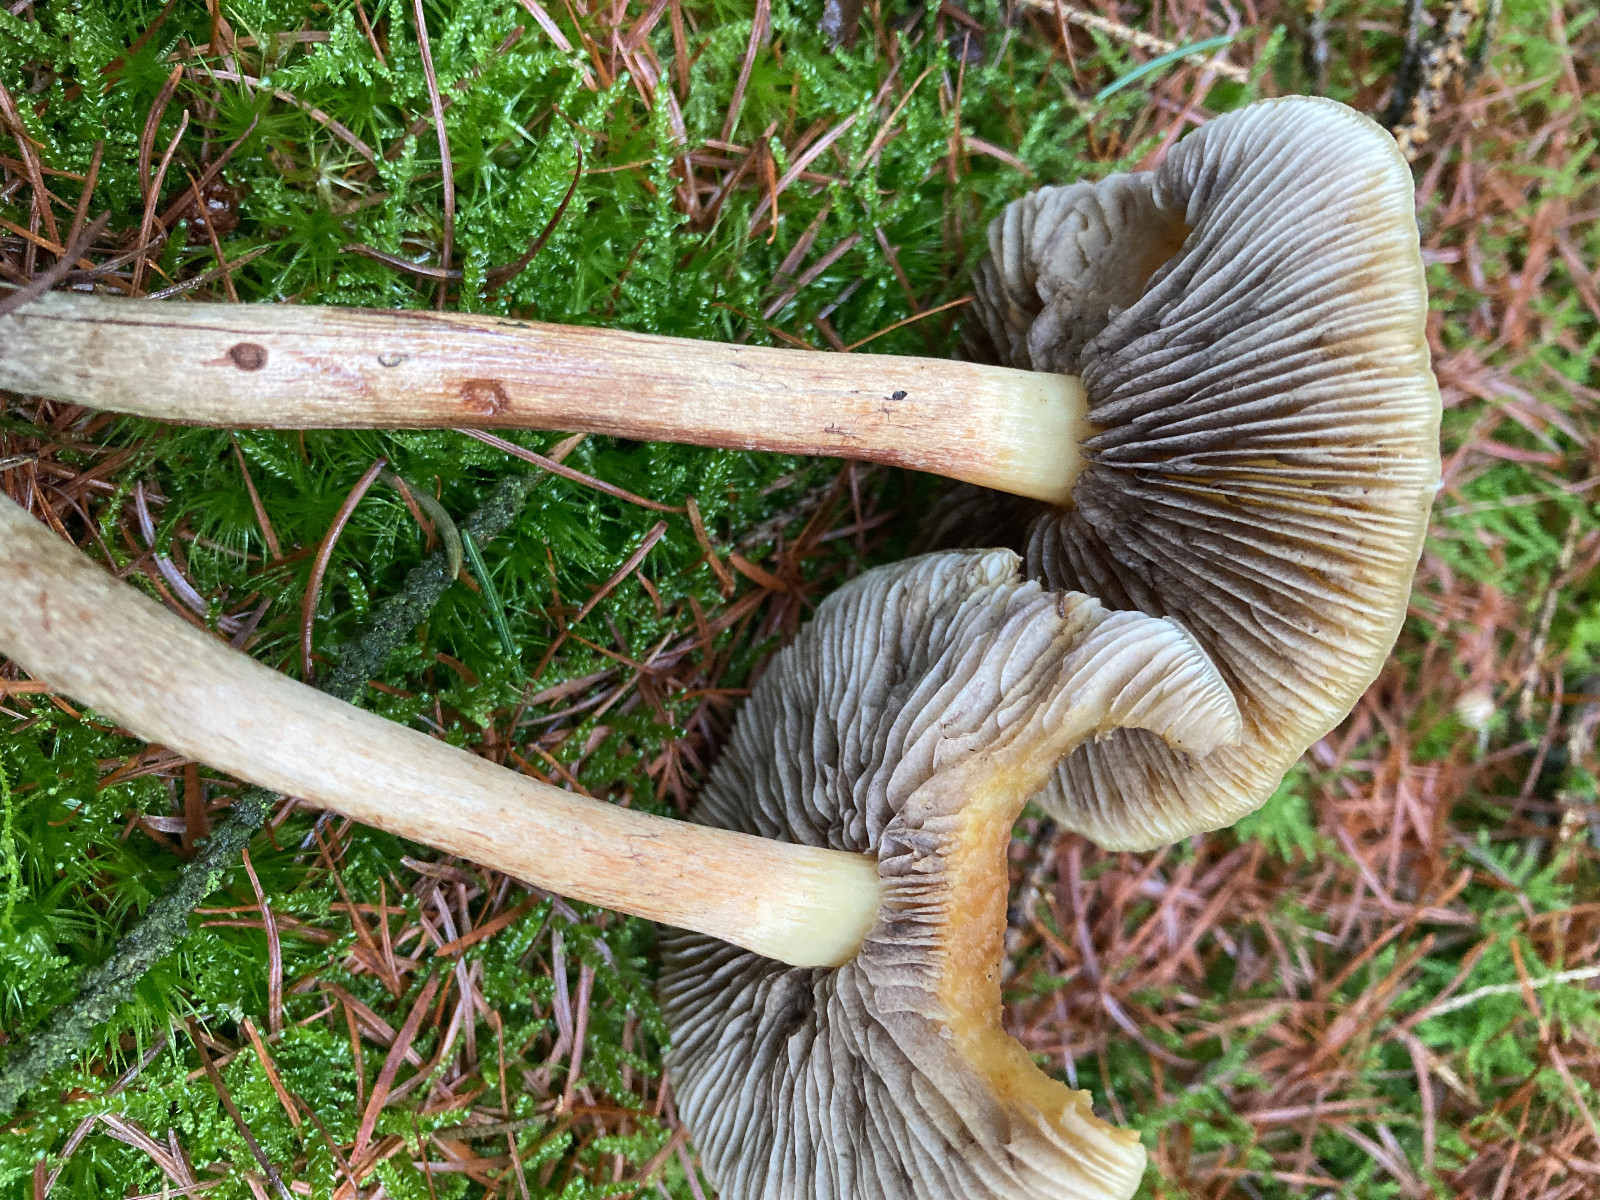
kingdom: Fungi
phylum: Basidiomycota
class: Agaricomycetes
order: Agaricales
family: Strophariaceae
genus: Hypholoma
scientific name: Hypholoma capnoides
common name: gran-svovlhat
